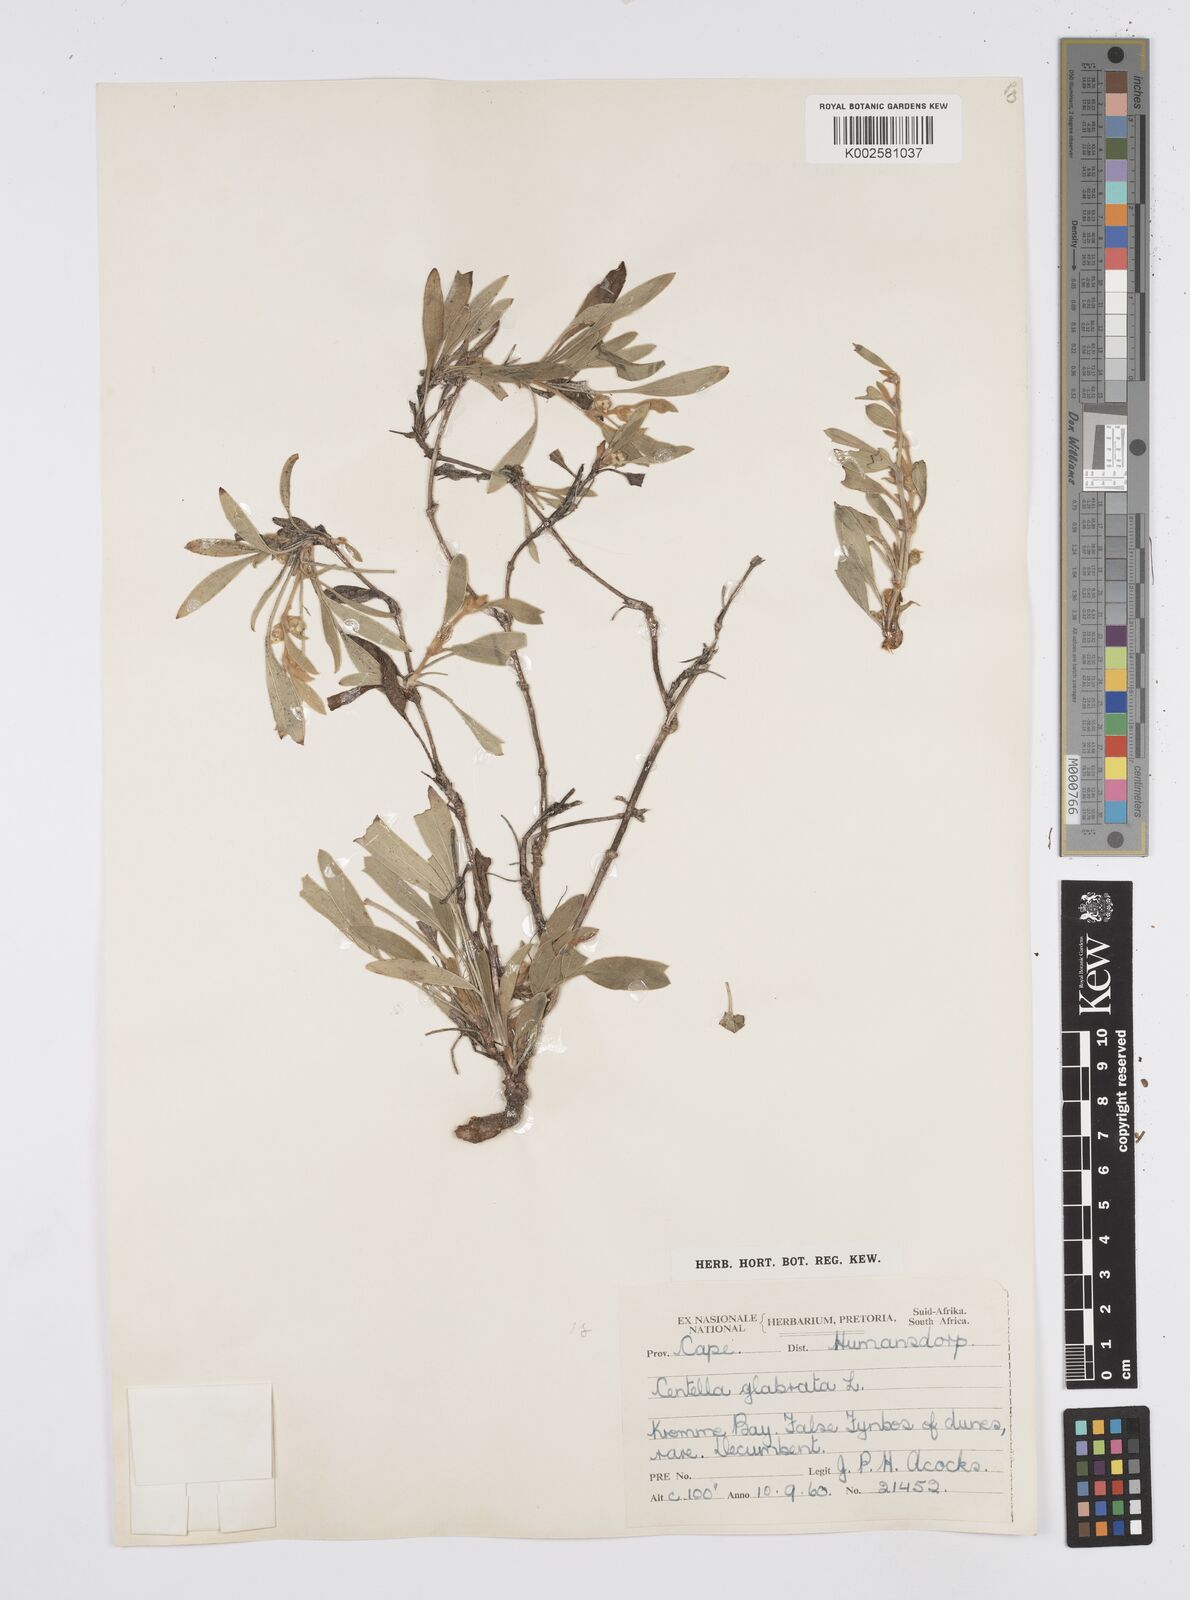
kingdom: Plantae
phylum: Tracheophyta
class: Magnoliopsida
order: Apiales
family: Apiaceae
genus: Centella
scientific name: Centella glabrata
